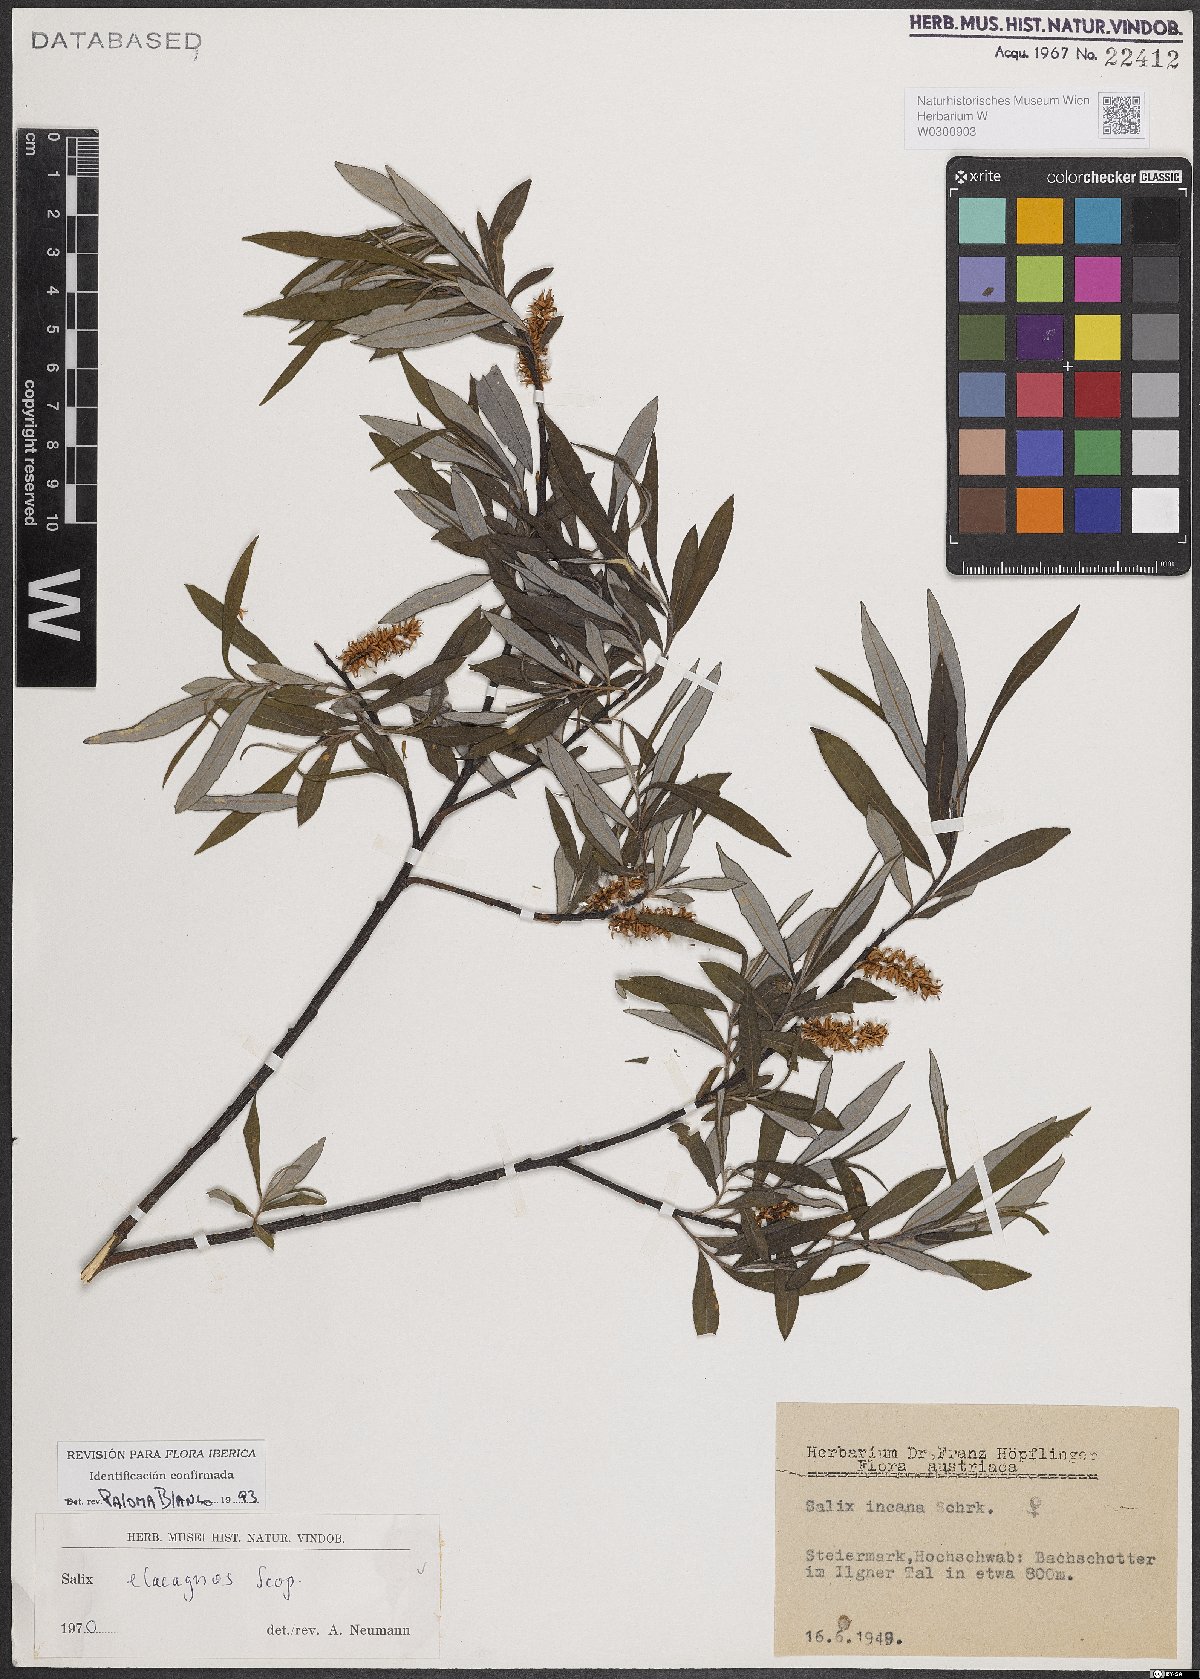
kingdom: Plantae
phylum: Tracheophyta
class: Magnoliopsida
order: Malpighiales
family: Salicaceae
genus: Salix
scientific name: Salix eleagnos
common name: Elaeagnus willow
